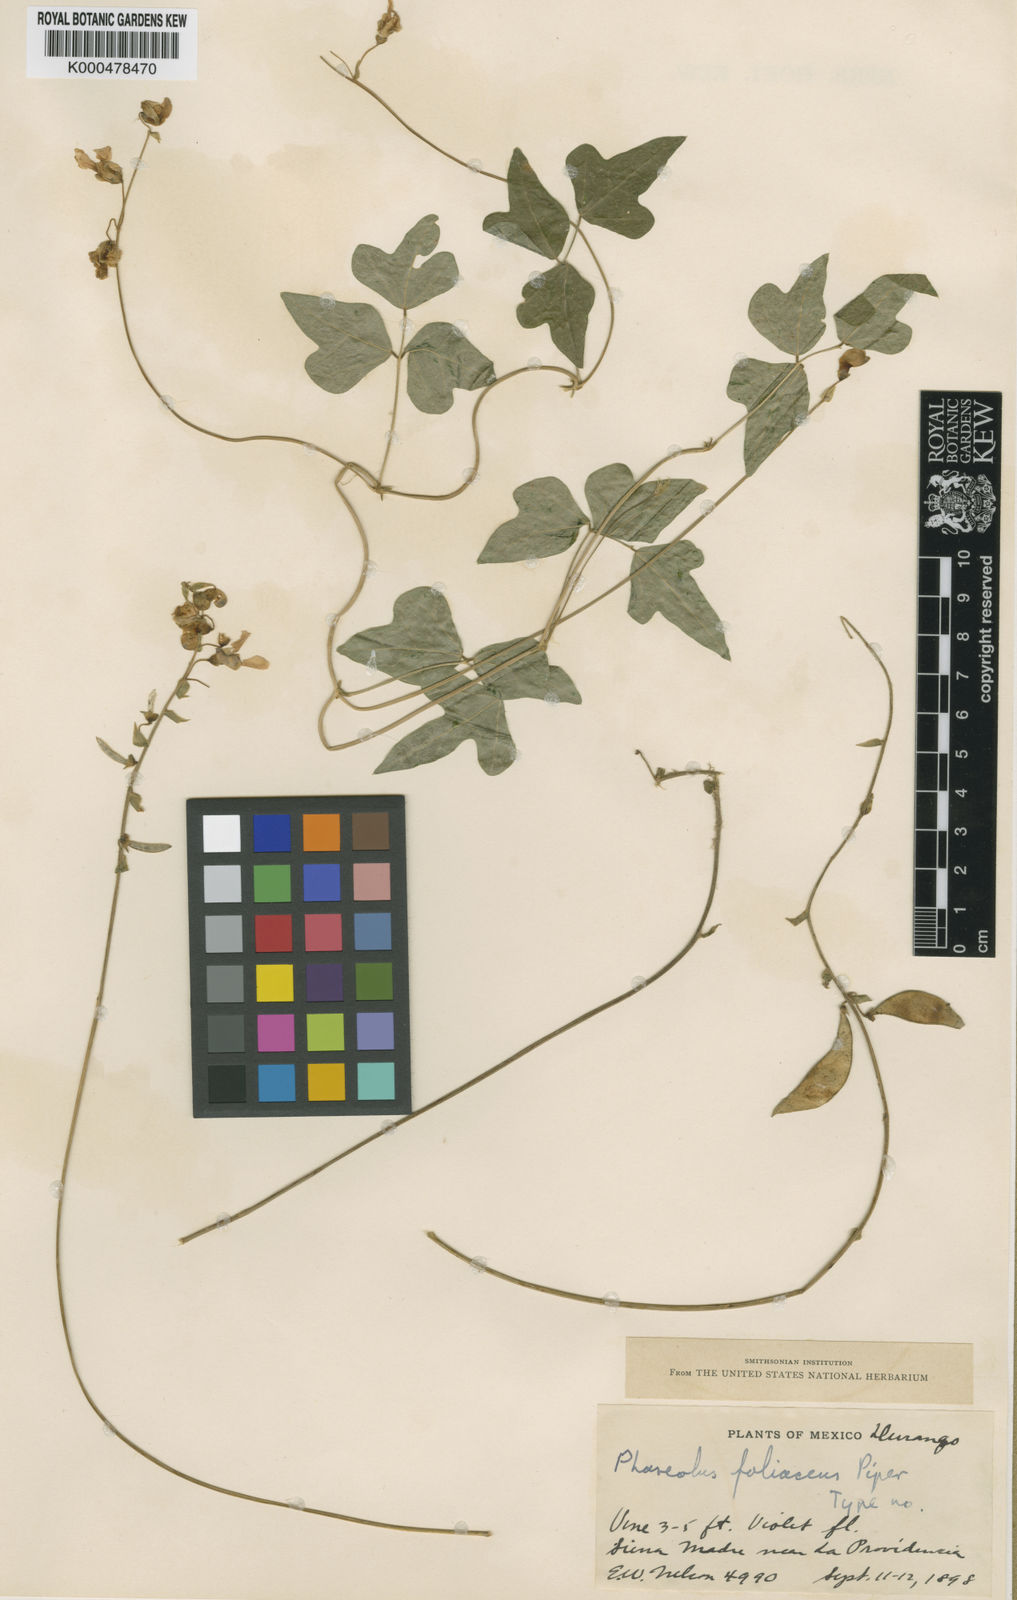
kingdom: Plantae
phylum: Tracheophyta
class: Magnoliopsida
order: Fabales
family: Fabaceae
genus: Phaseolus
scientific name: Phaseolus pedicellatus
